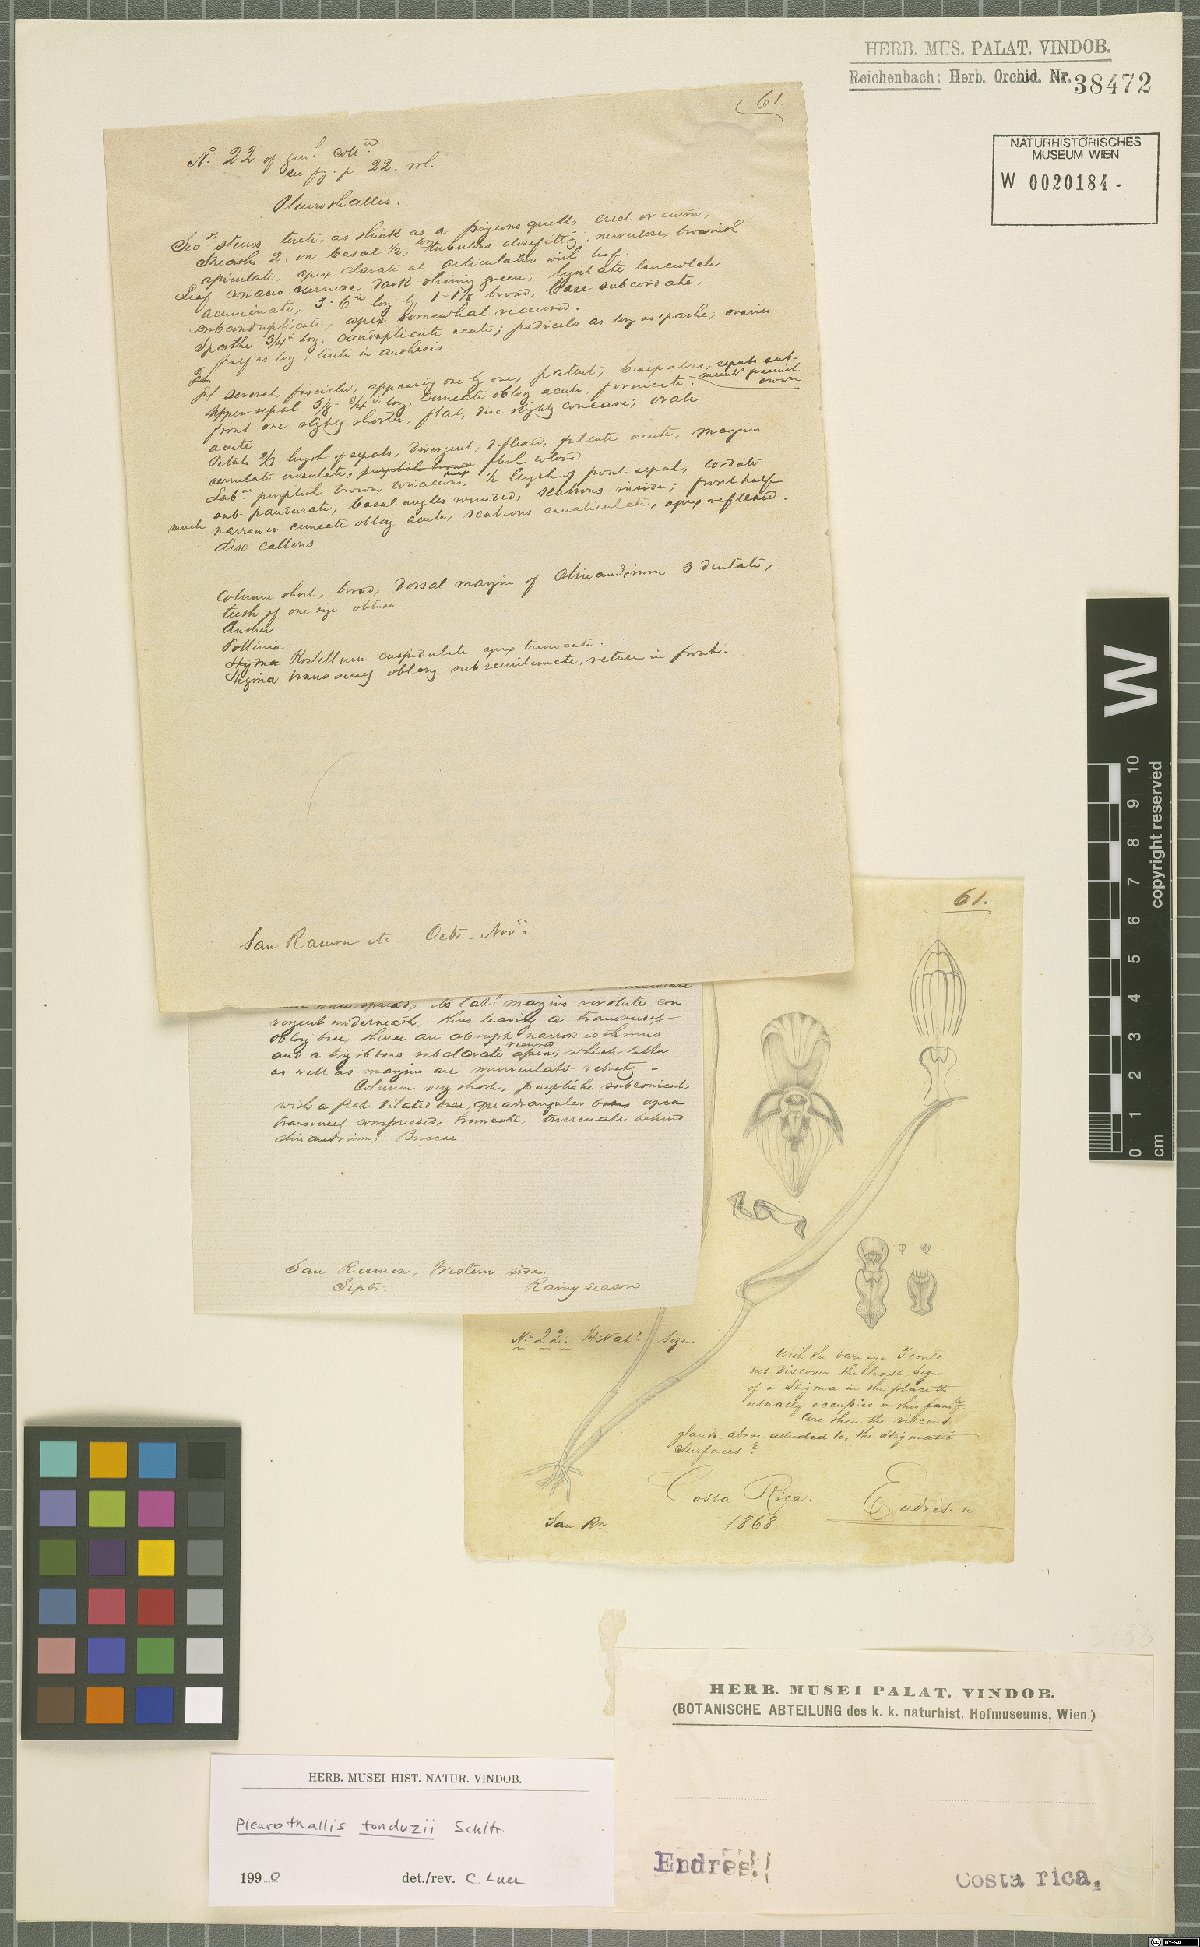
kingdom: Plantae
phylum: Tracheophyta
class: Liliopsida
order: Asparagales
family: Orchidaceae
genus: Pleurothallis
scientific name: Pleurothallis tonduzii
